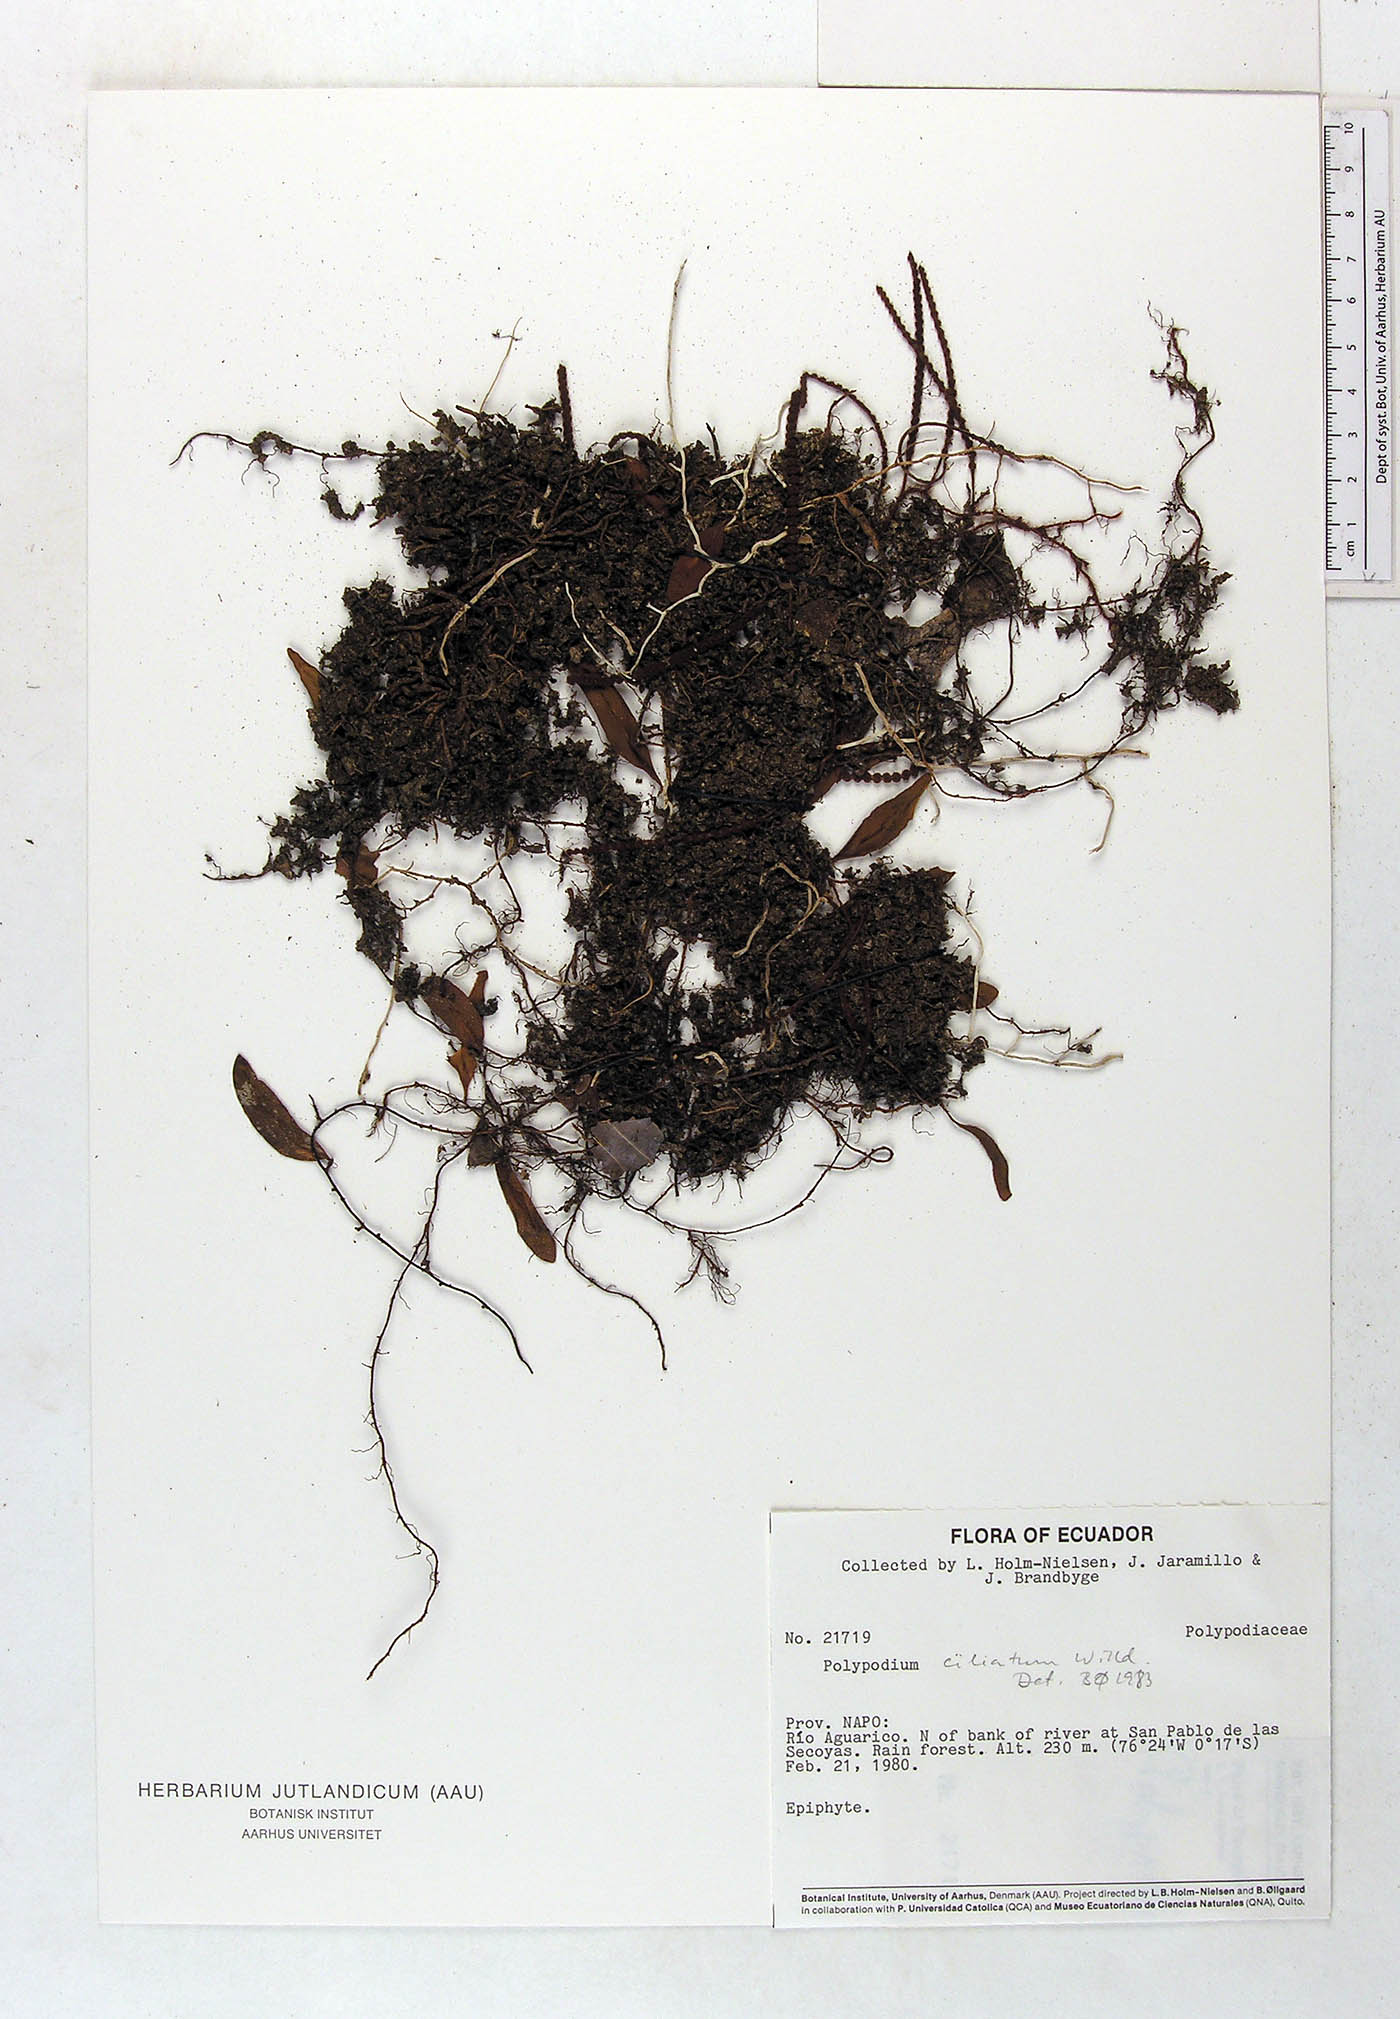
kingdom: Plantae
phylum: Tracheophyta
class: Polypodiopsida
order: Polypodiales
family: Polypodiaceae
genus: Microgramma
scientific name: Microgramma piloselloides
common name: Hairy snakefern
